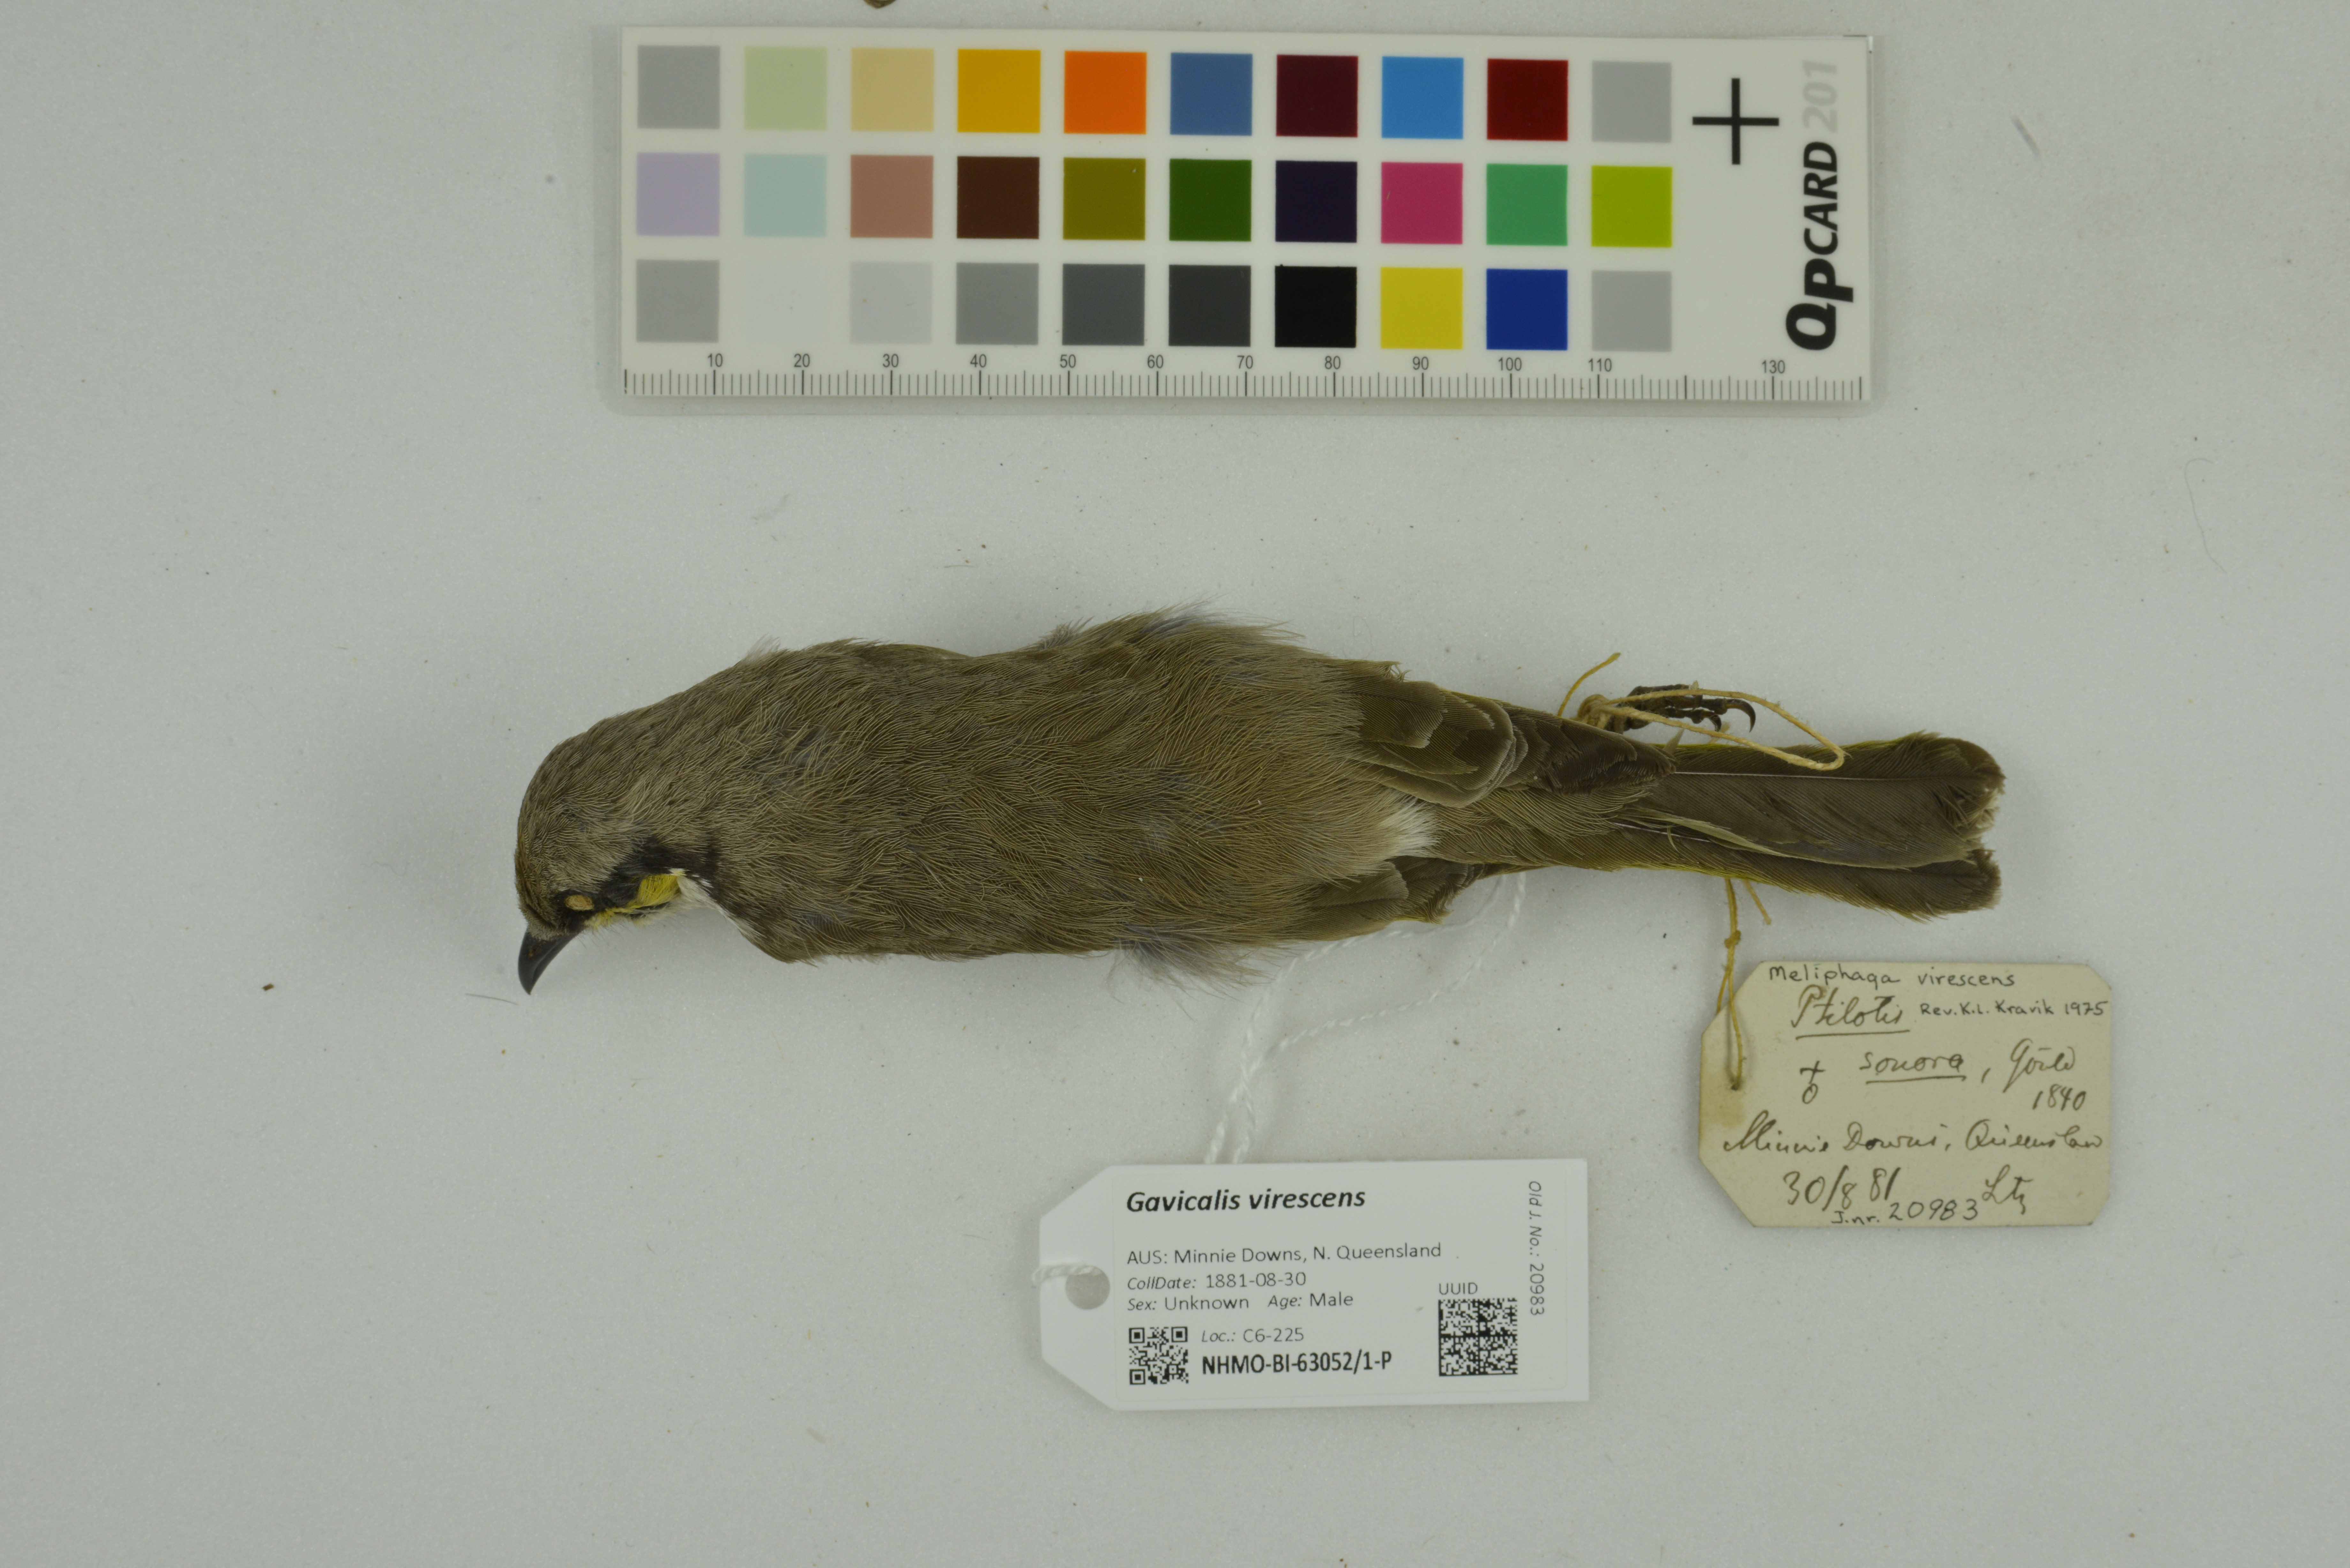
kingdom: Animalia
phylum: Chordata
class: Aves
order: Passeriformes
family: Meliphagidae
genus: Gavicalis
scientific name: Gavicalis virescens
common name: Singing honeyeater
